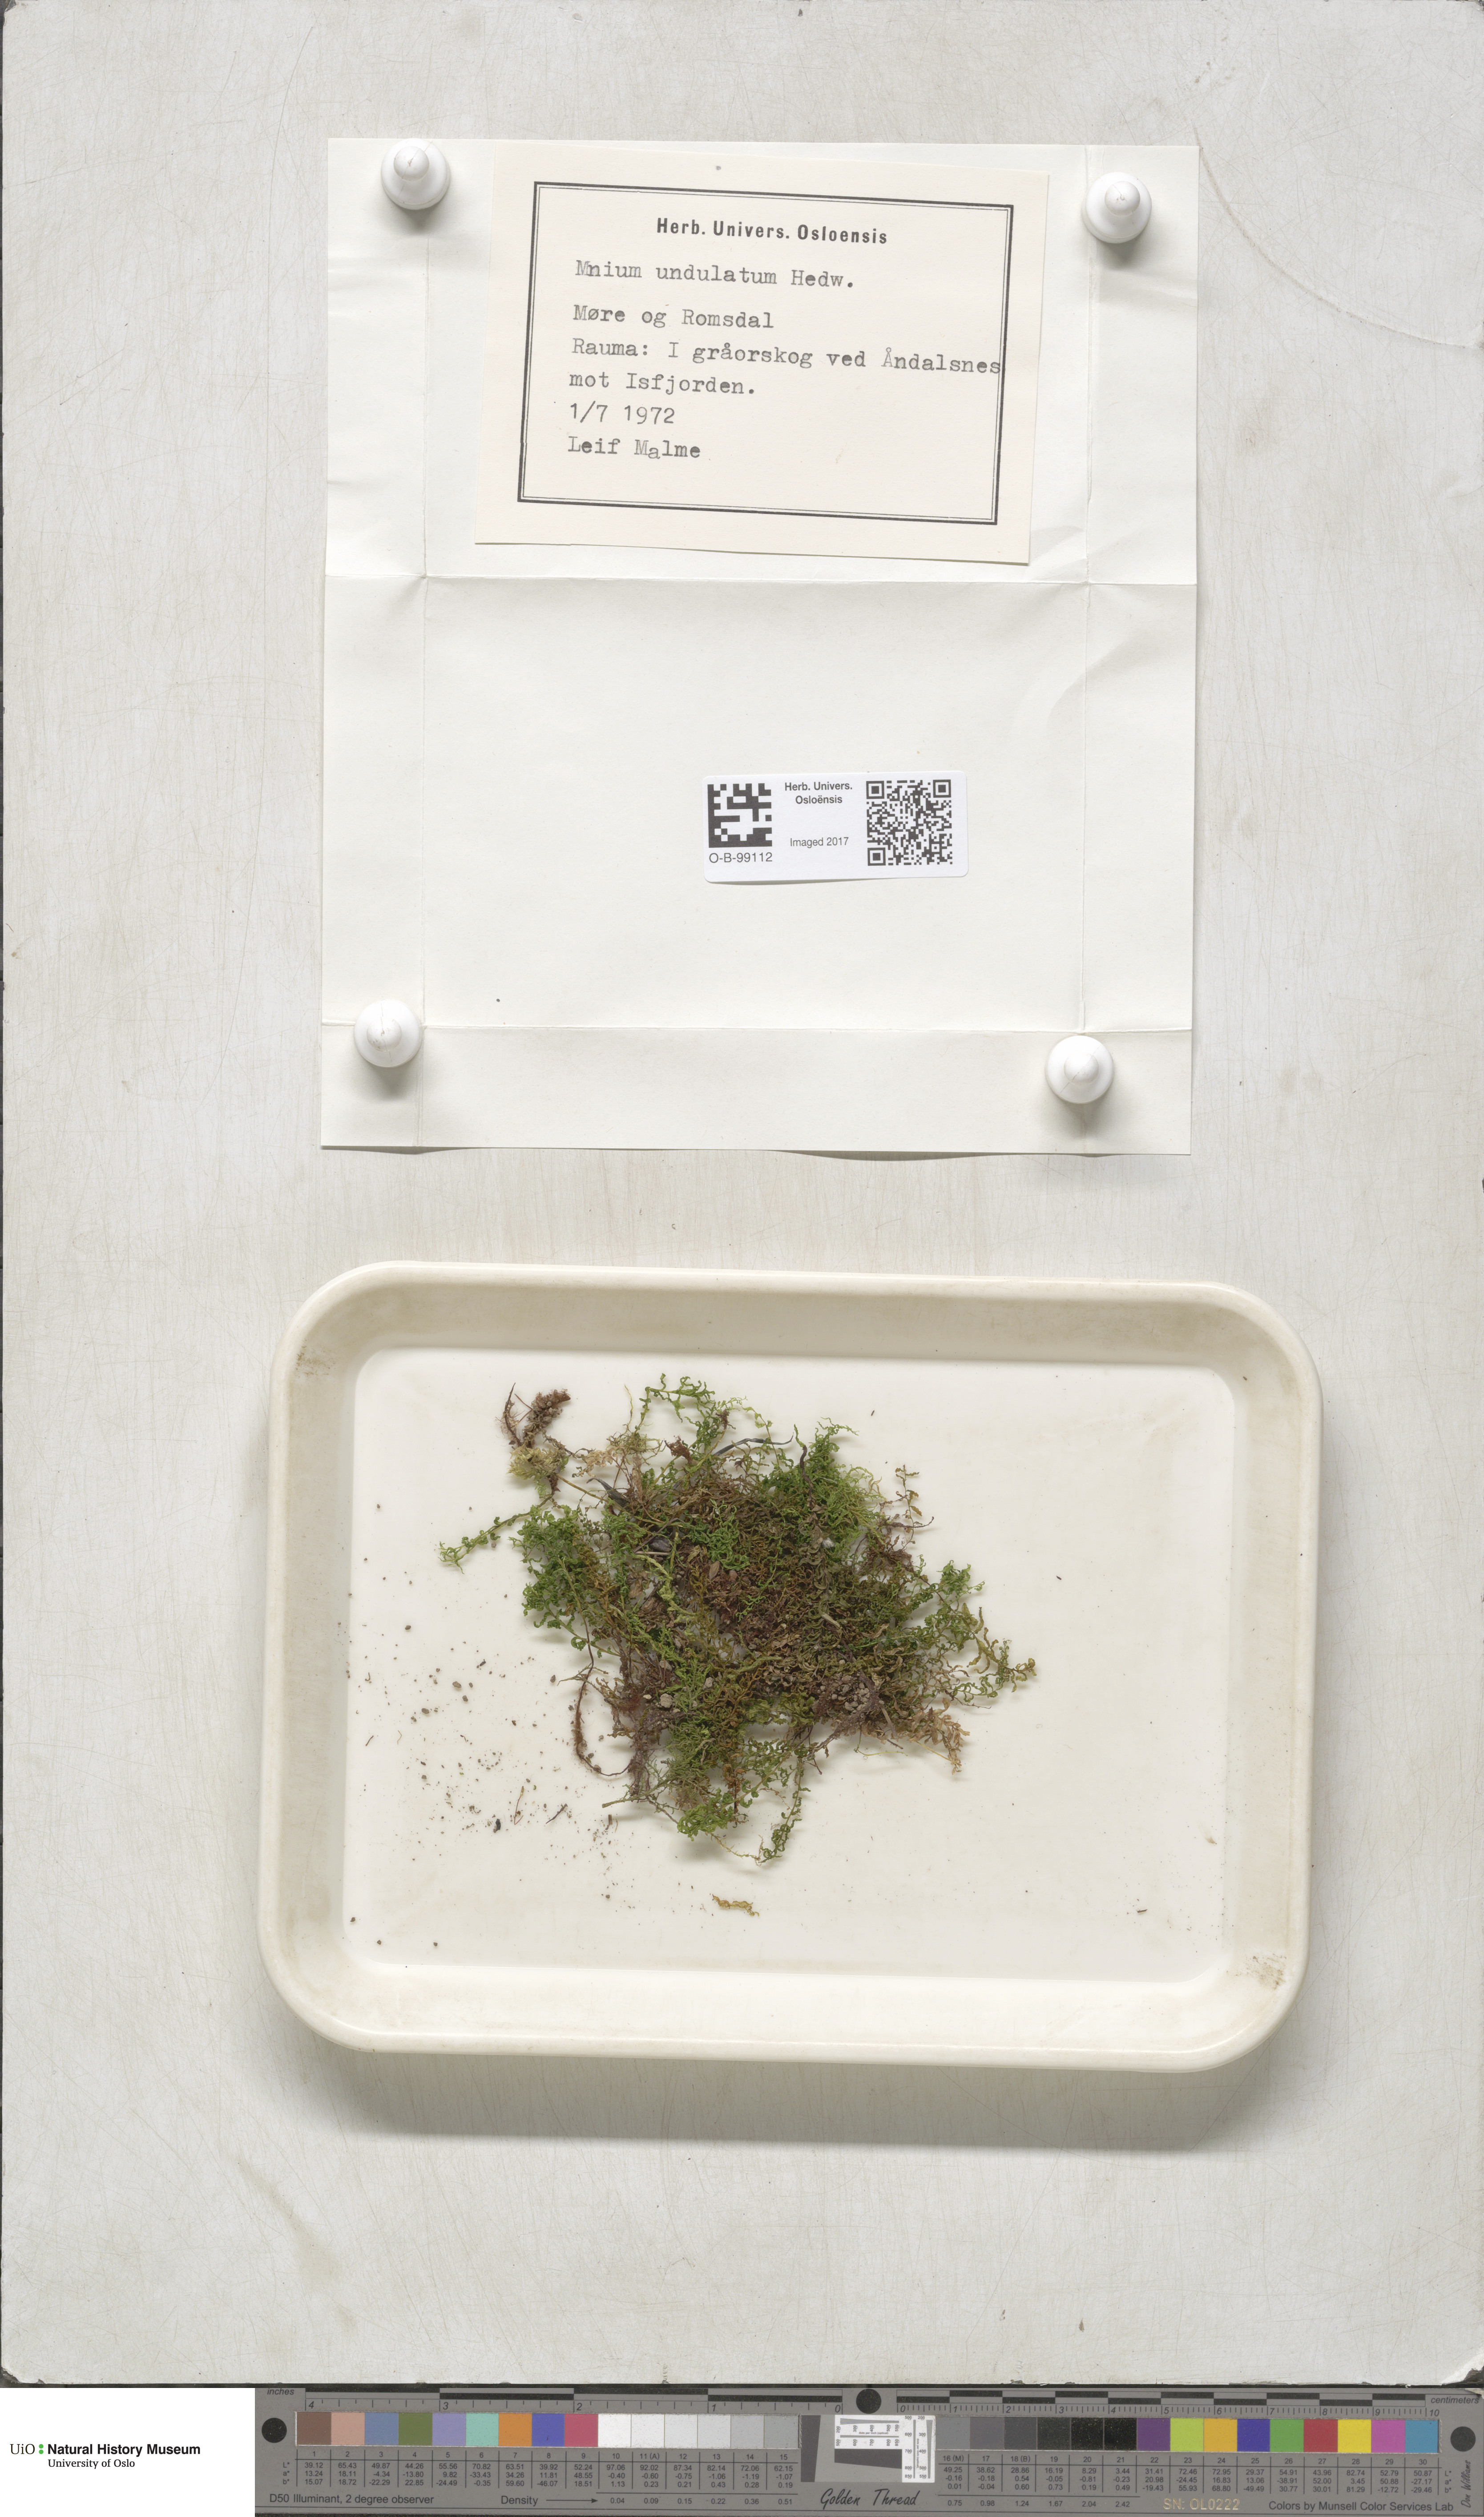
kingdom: Plantae
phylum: Bryophyta
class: Bryopsida
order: Bryales
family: Mniaceae
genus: Plagiomnium
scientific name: Plagiomnium undulatum
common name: Hart's-tongue thyme-moss
